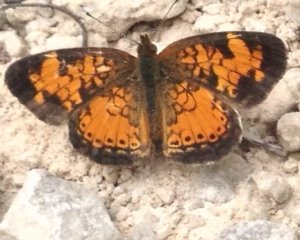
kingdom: Animalia
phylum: Arthropoda
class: Insecta
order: Lepidoptera
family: Nymphalidae
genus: Phyciodes
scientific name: Phyciodes tharos
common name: Northern Crescent
